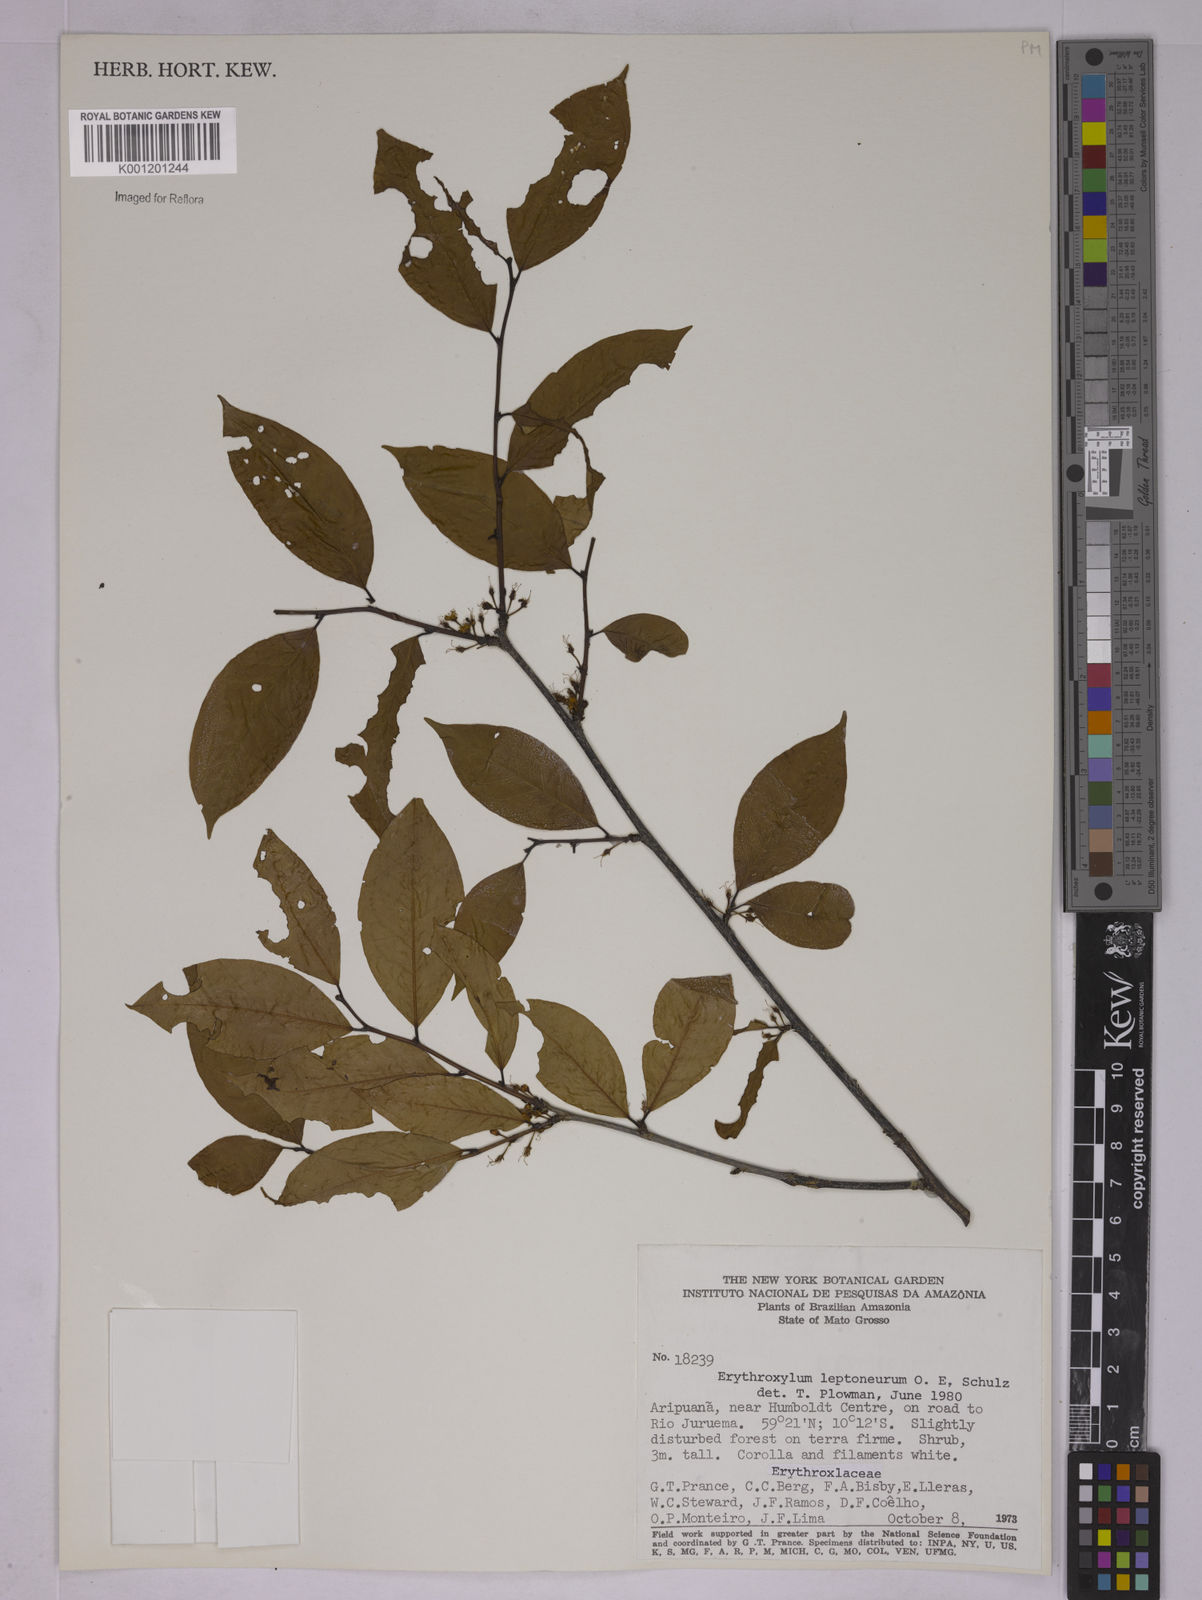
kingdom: Plantae
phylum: Tracheophyta
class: Magnoliopsida
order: Malpighiales
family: Erythroxylaceae
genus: Erythroxylum
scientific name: Erythroxylum leptoneurum
